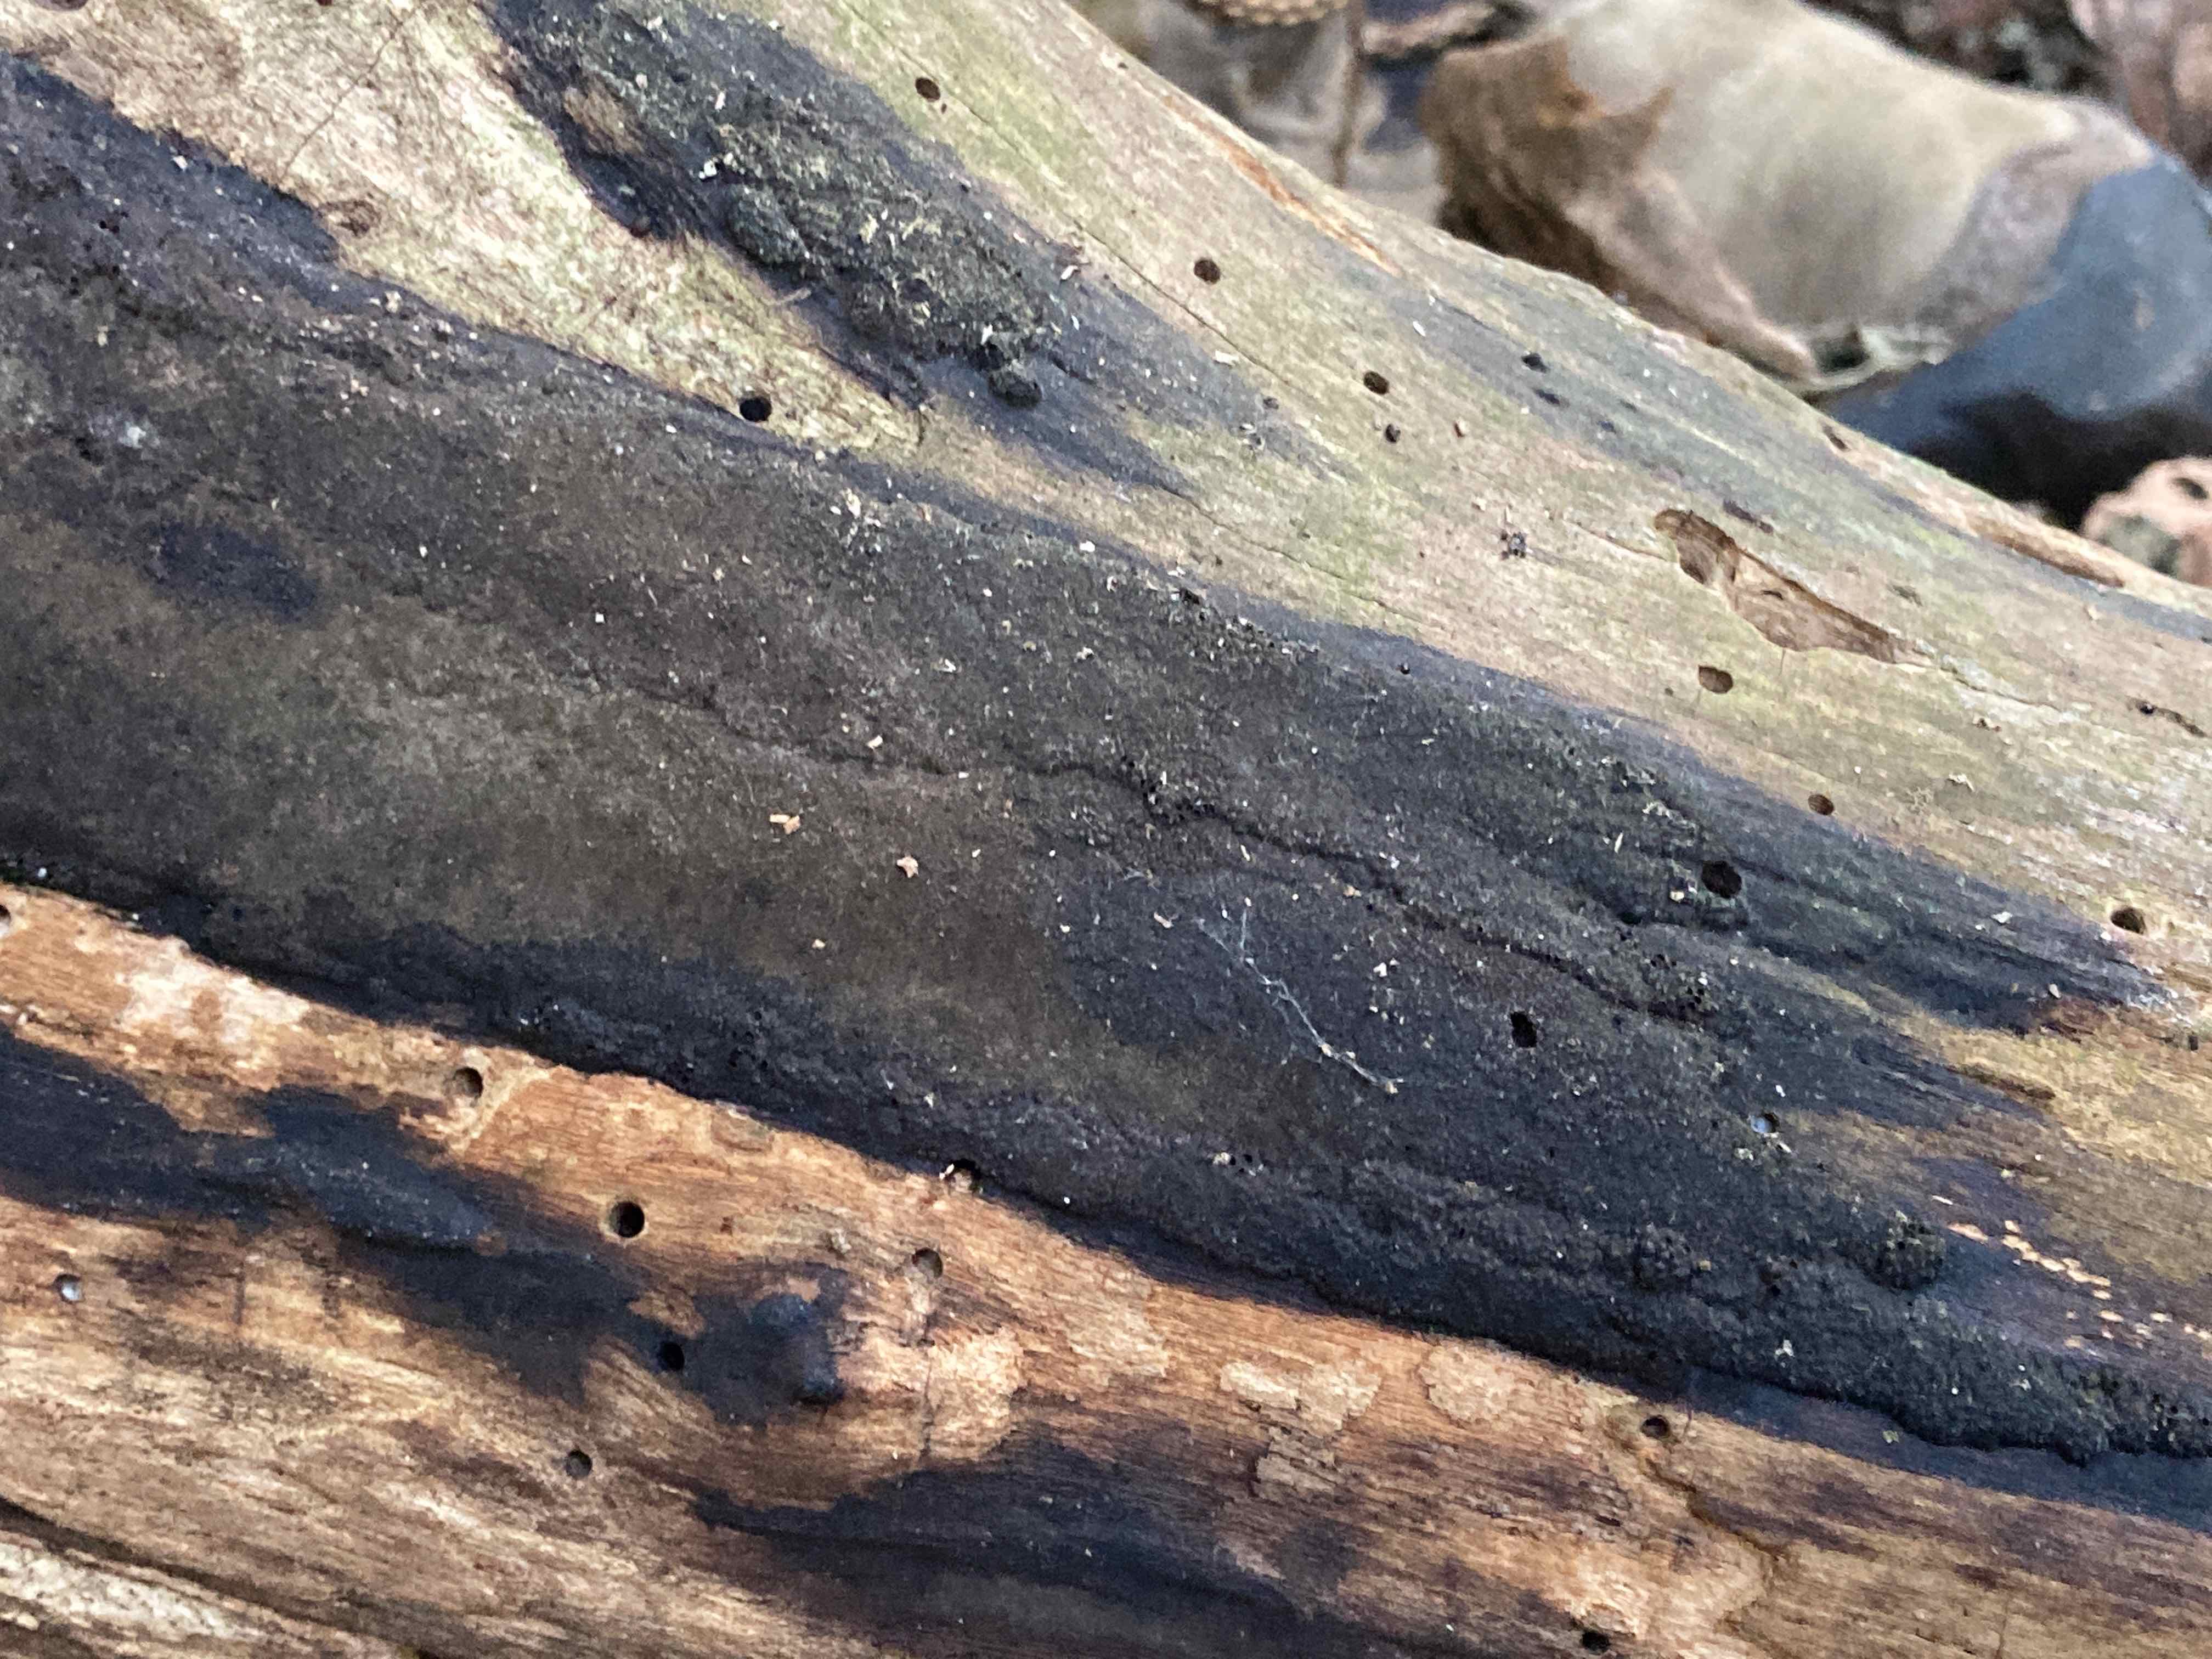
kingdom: Fungi
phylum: Ascomycota
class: Sordariomycetes
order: Xylariales
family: Hypoxylaceae
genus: Hypoxylon
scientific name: Hypoxylon macrocarpum
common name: skorpe-kulbær
